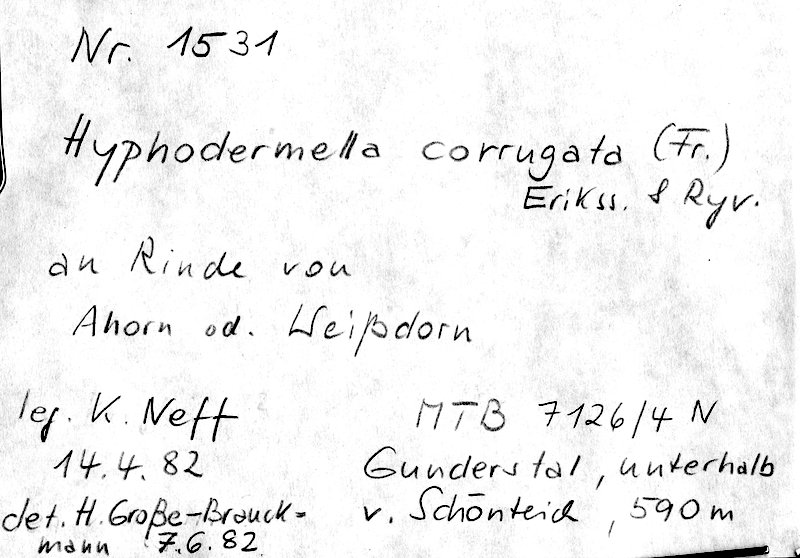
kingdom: Plantae
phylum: Tracheophyta
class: Magnoliopsida
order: Sapindales
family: Sapindaceae
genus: Acer
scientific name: Acer
